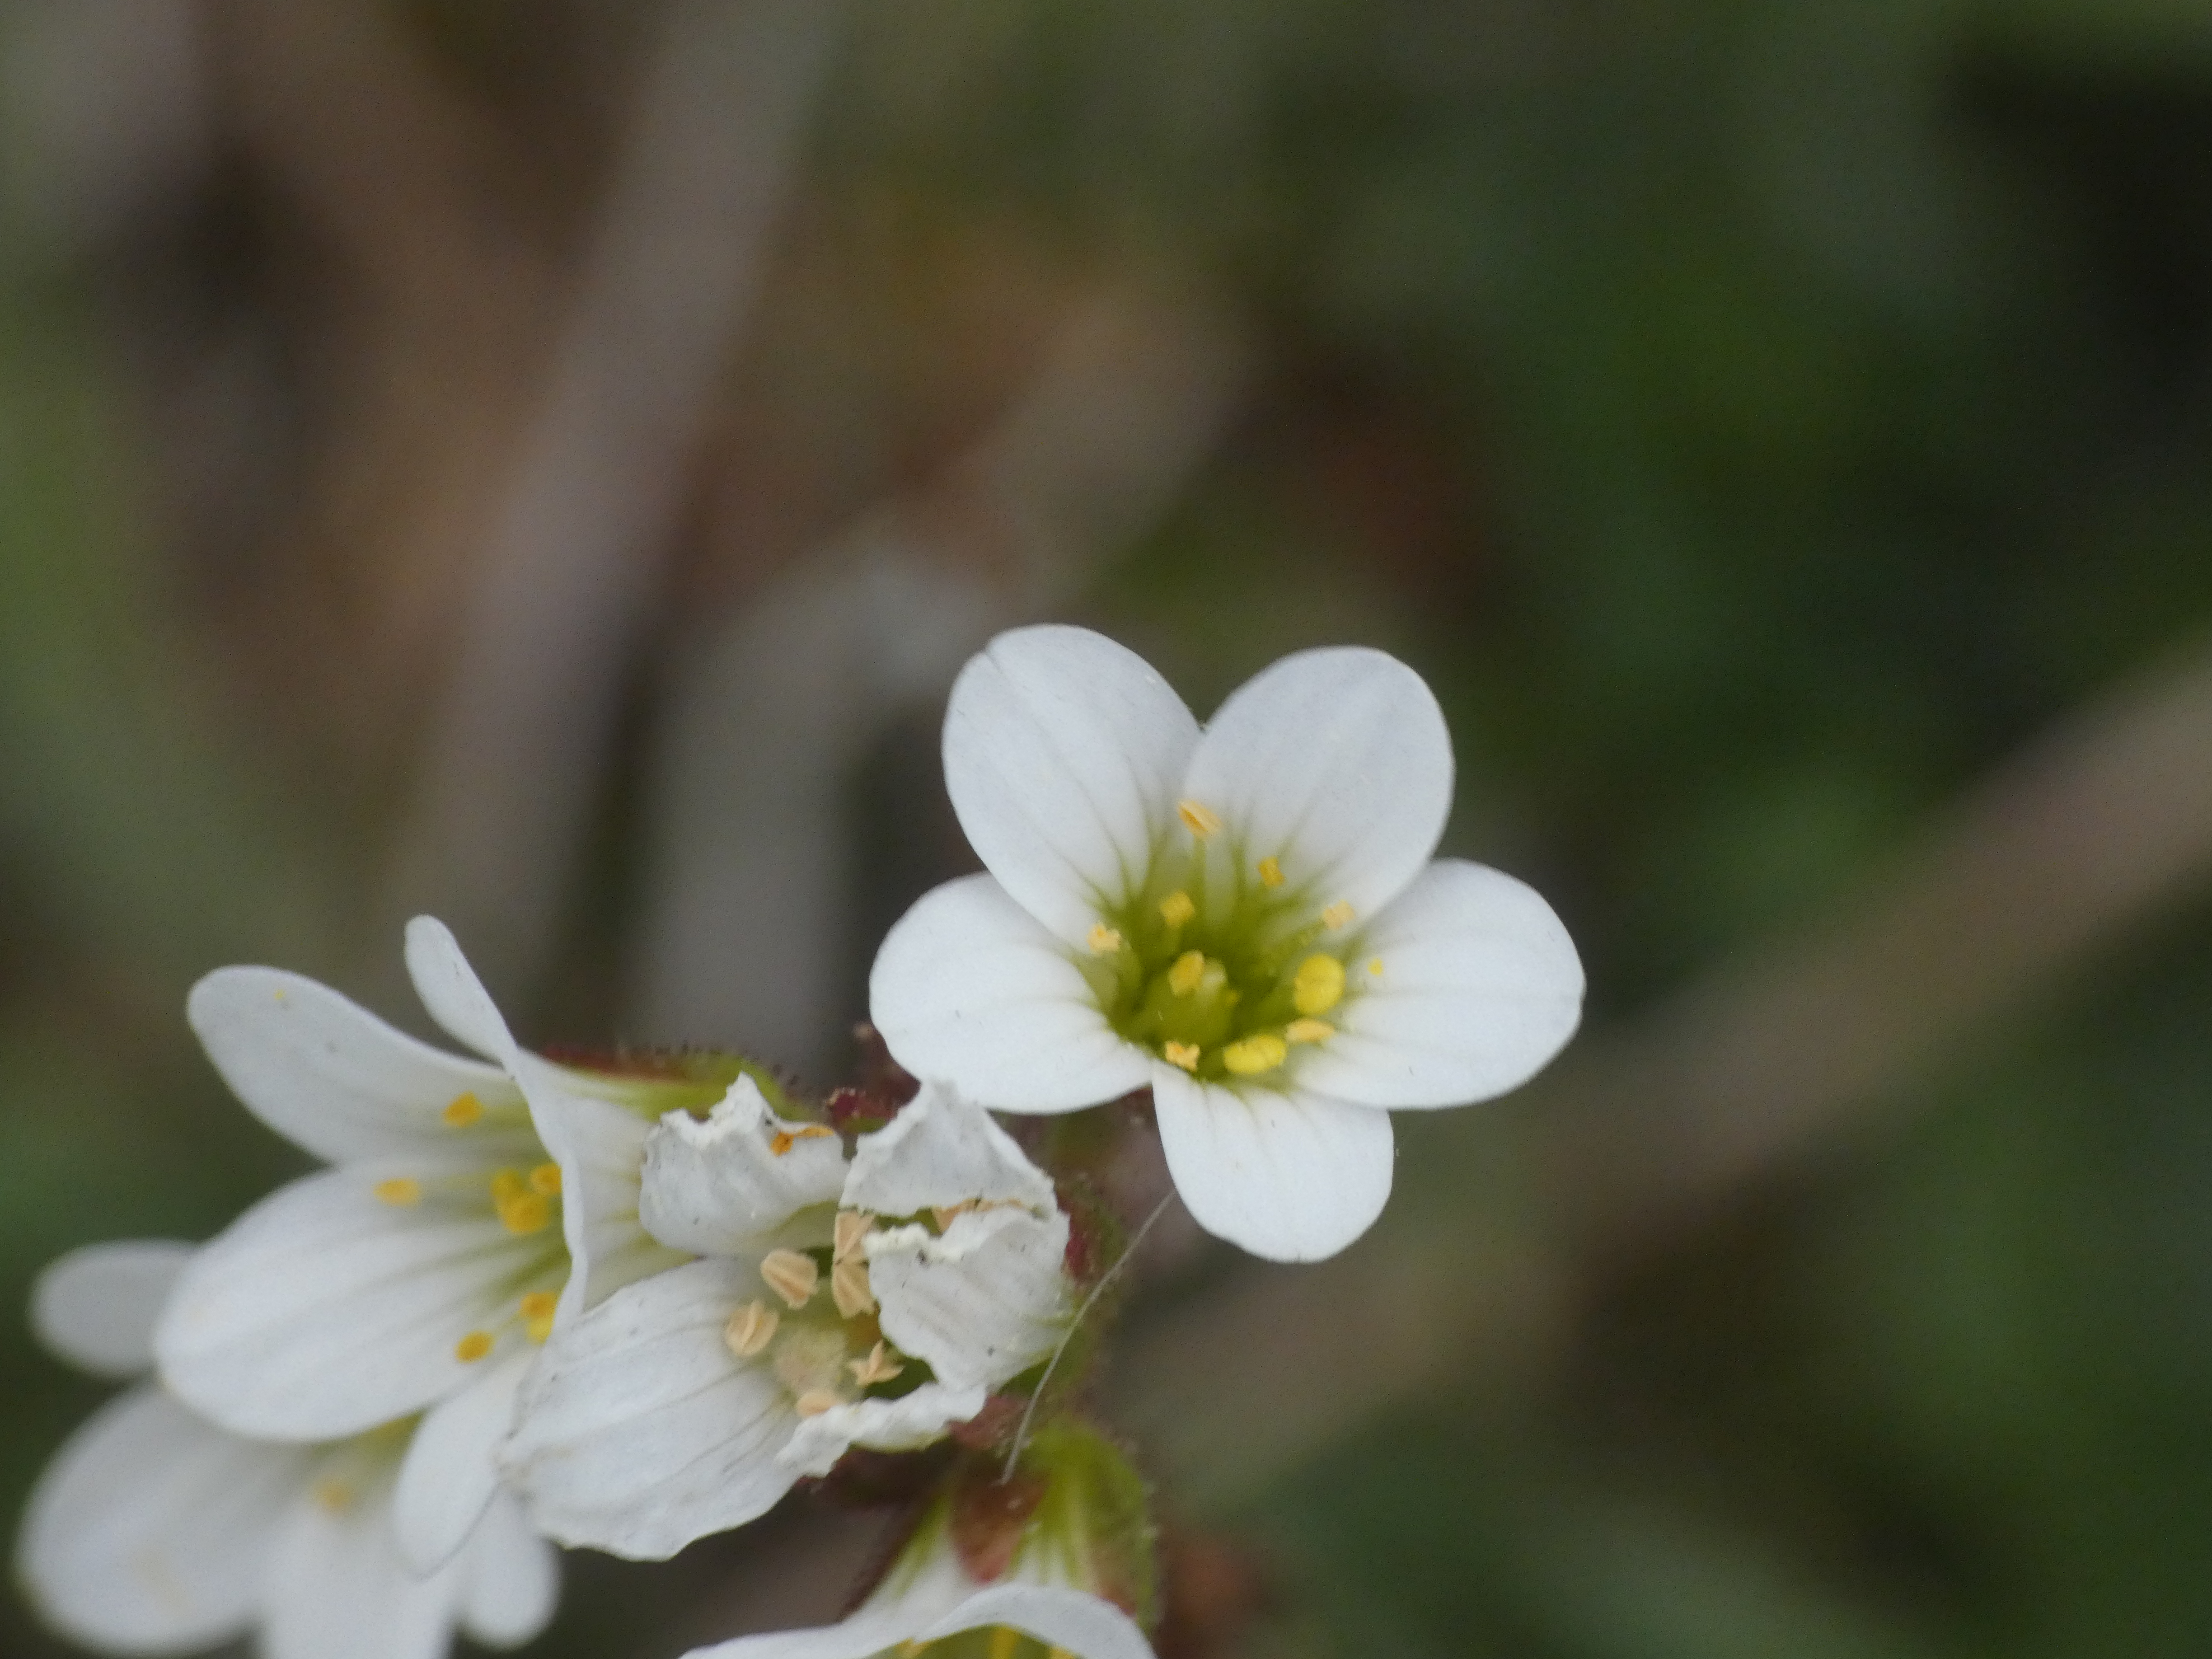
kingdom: Plantae
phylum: Tracheophyta
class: Magnoliopsida
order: Saxifragales
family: Saxifragaceae
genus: Saxifraga
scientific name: Saxifraga granulata
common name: Kornet stenbræk
